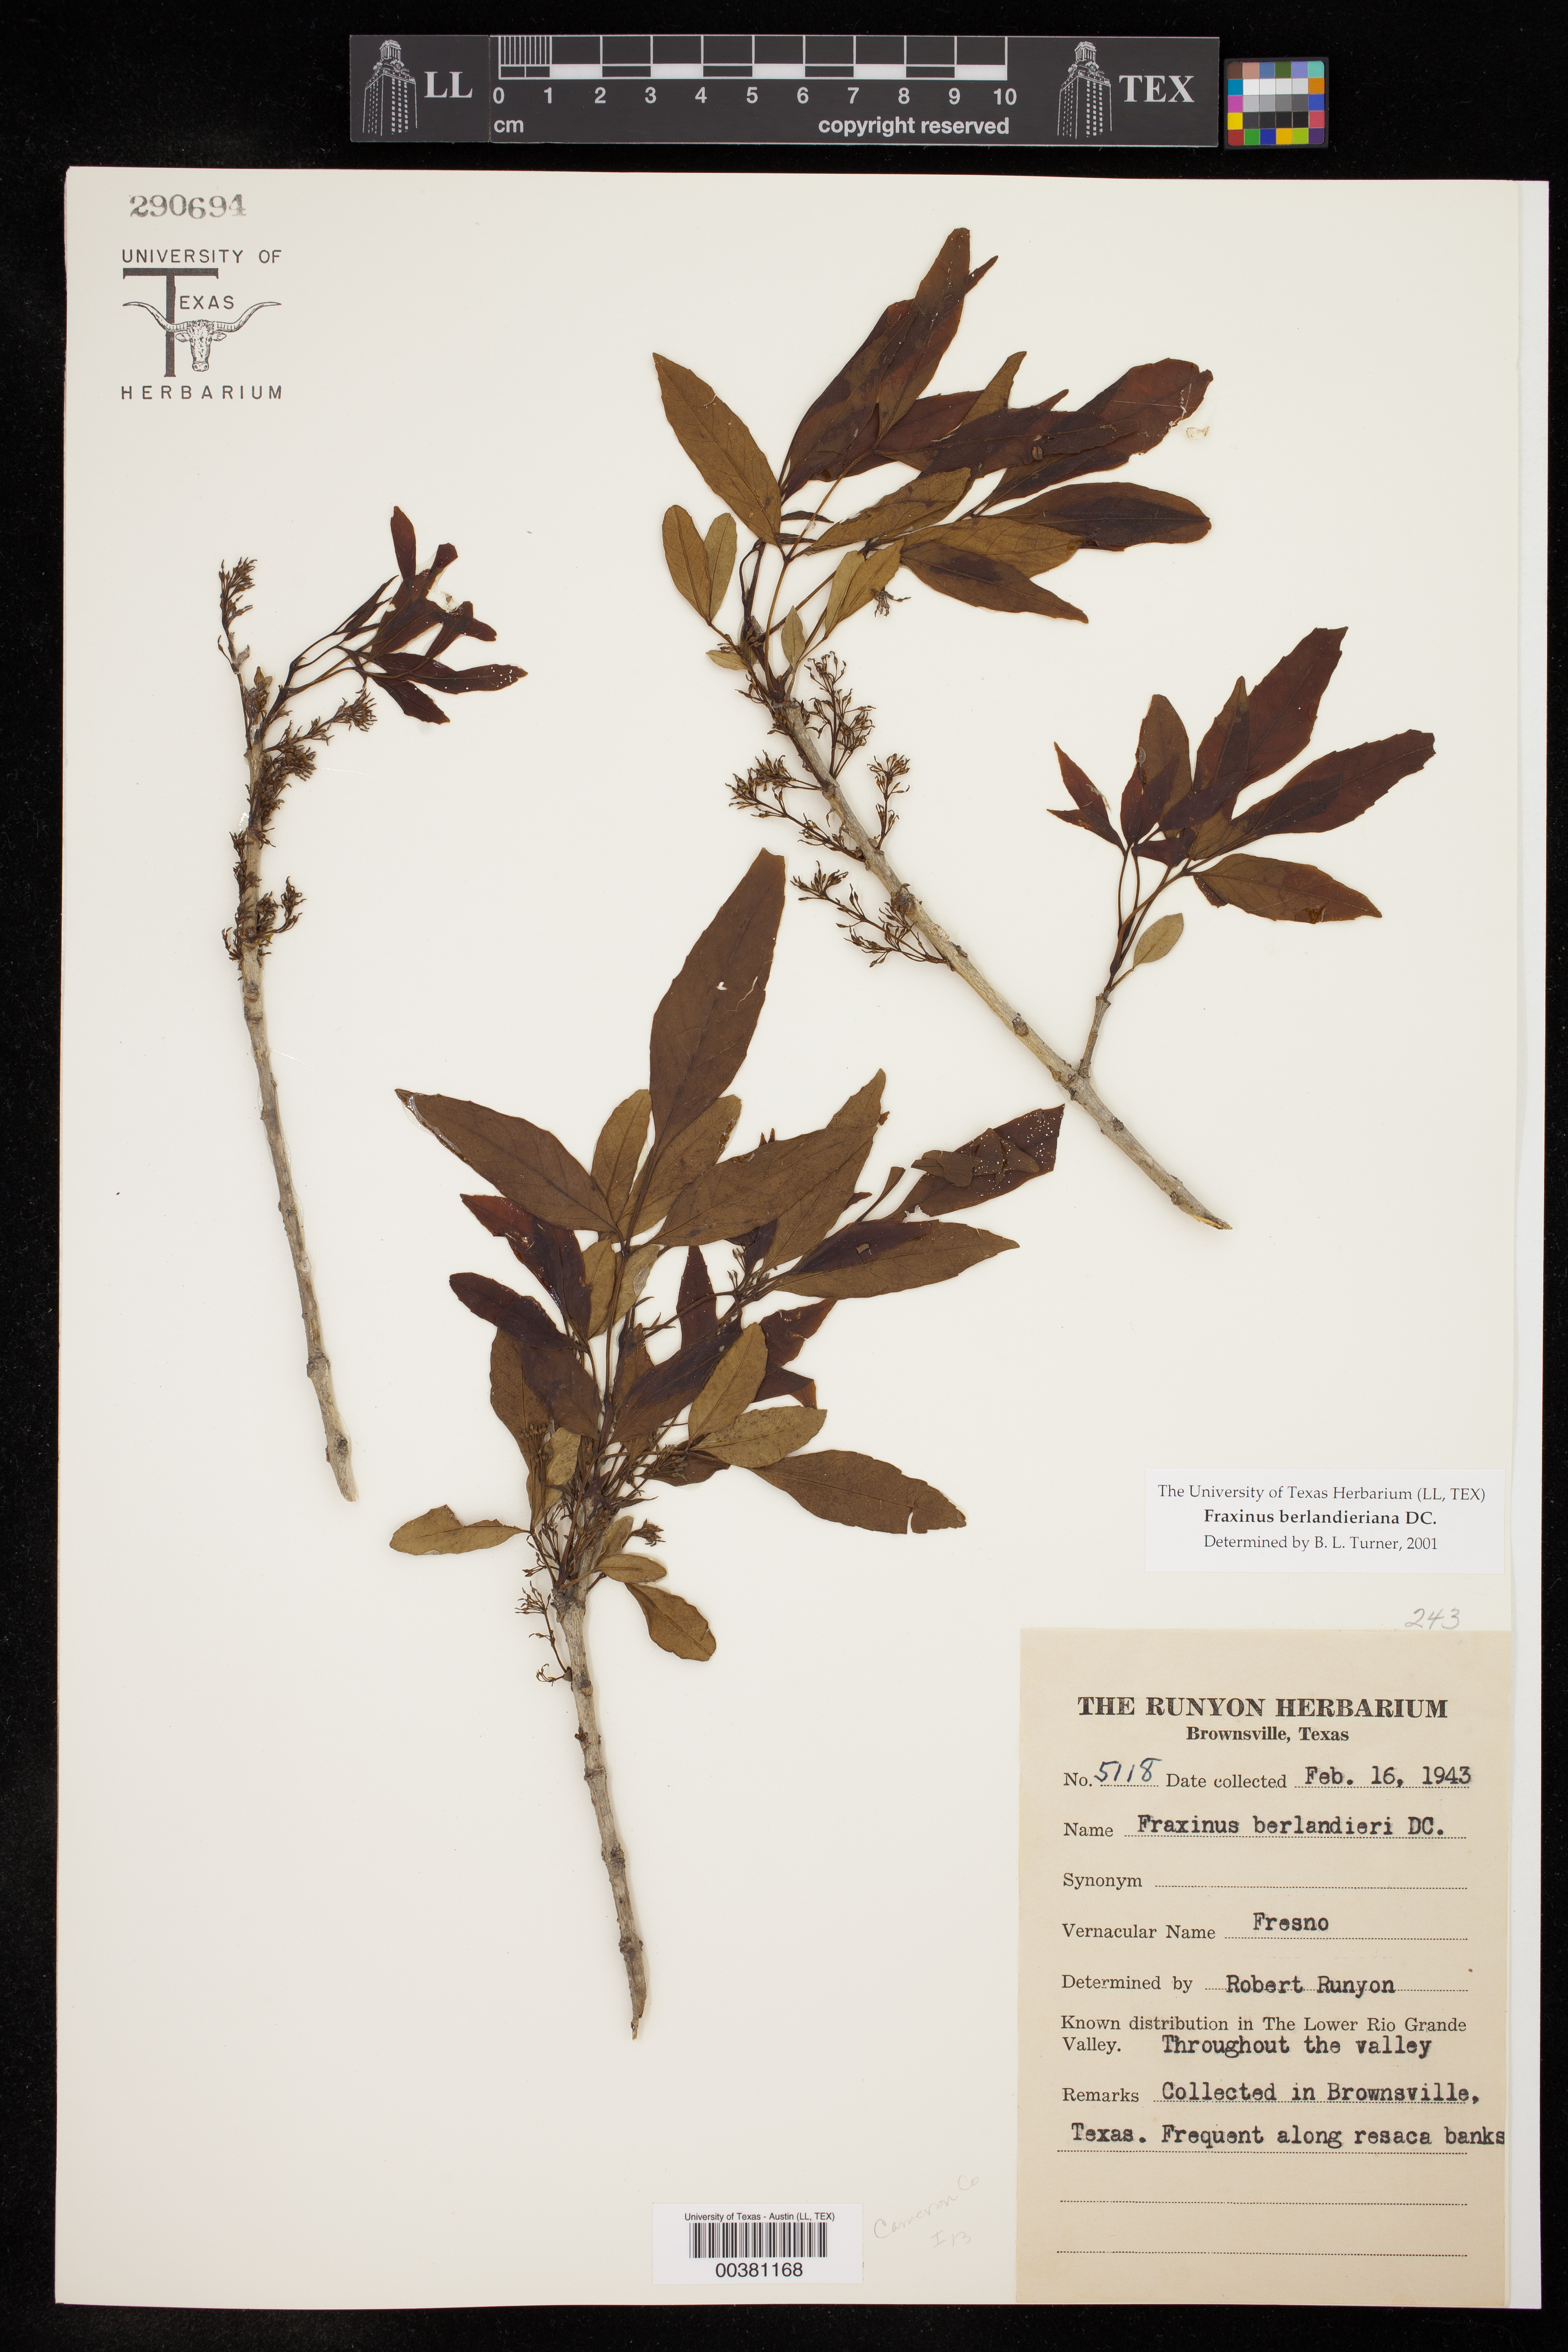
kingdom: Plantae
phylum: Tracheophyta
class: Magnoliopsida
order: Lamiales
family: Oleaceae
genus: Fraxinus
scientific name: Fraxinus berlandieriana
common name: Berlandier ash
